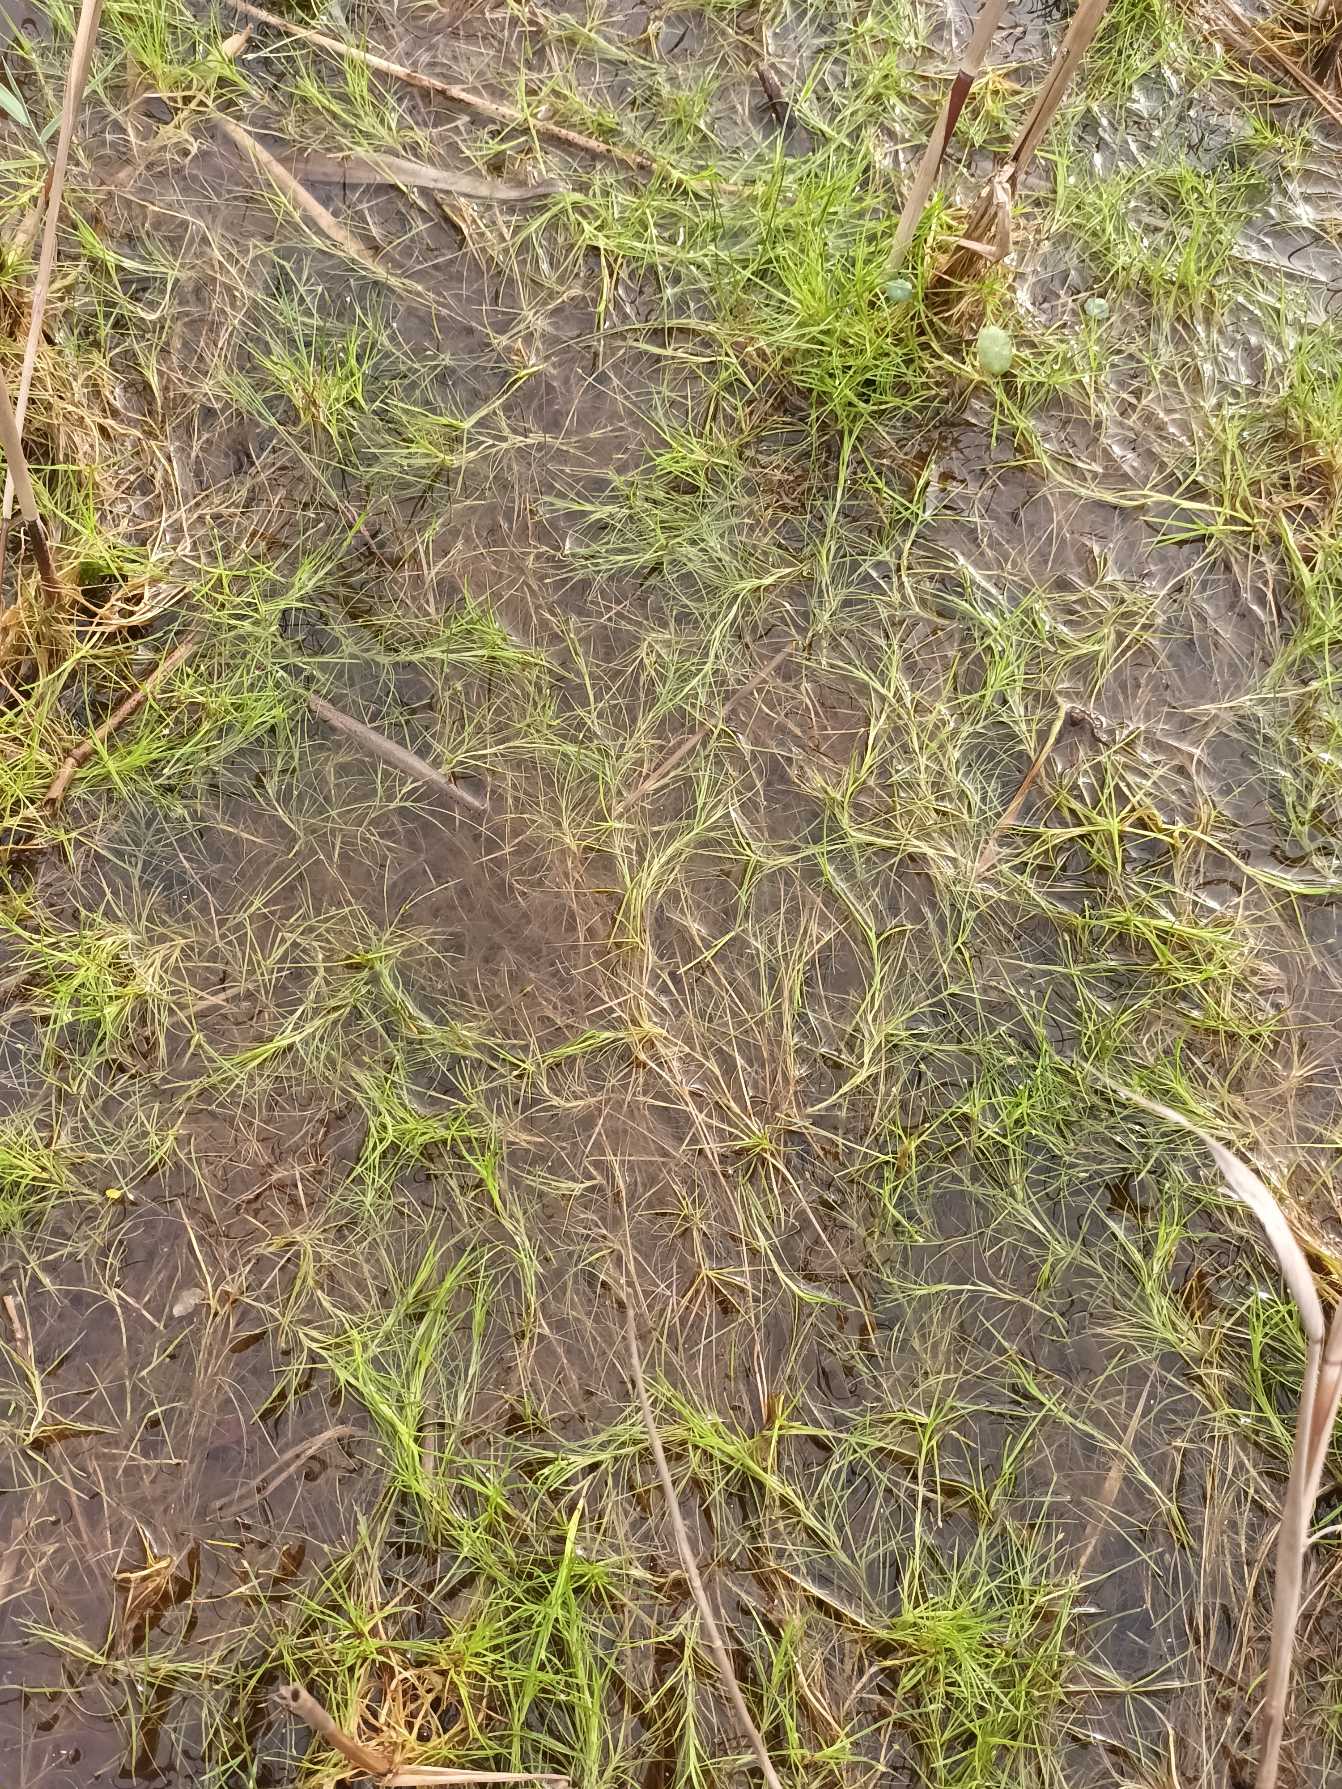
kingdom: Plantae
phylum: Tracheophyta
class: Liliopsida
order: Poales
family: Cyperaceae
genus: Isolepis
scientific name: Isolepis fluitans
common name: Flydende kogleaks
